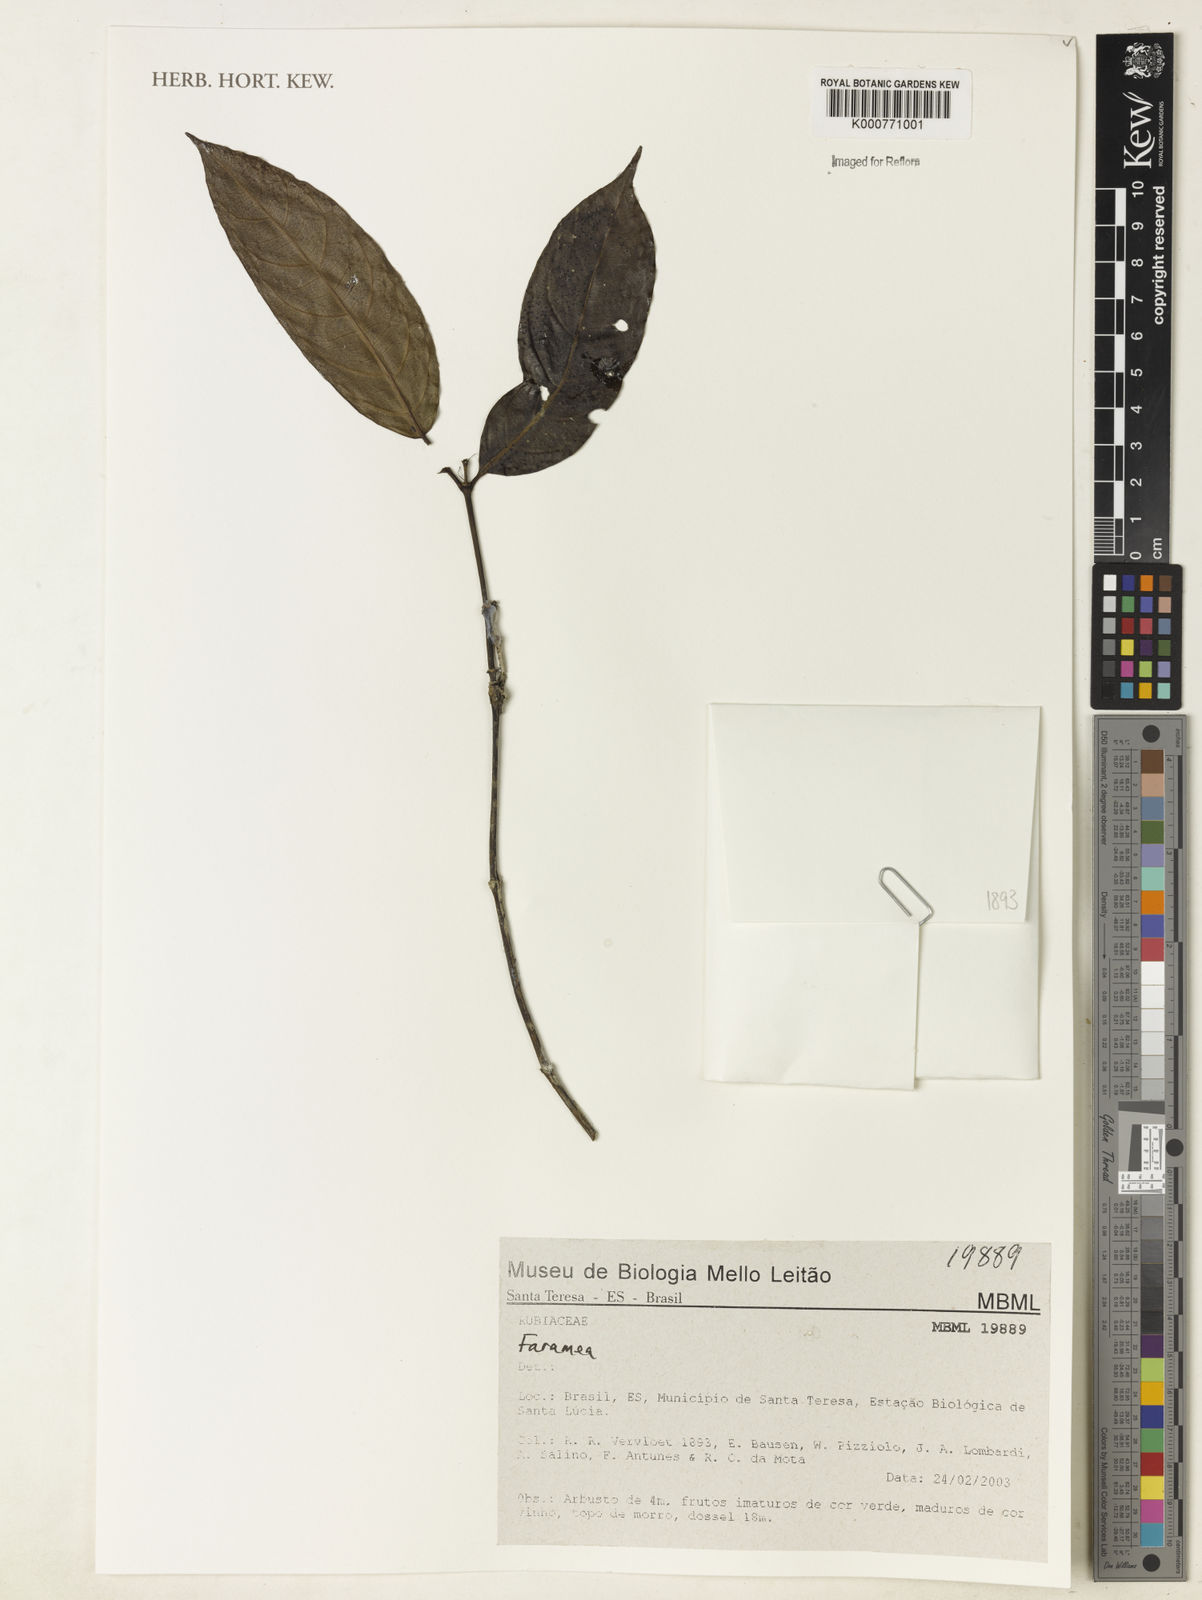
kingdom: Plantae
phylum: Tracheophyta
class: Magnoliopsida
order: Gentianales
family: Rubiaceae
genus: Faramea
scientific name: Faramea
